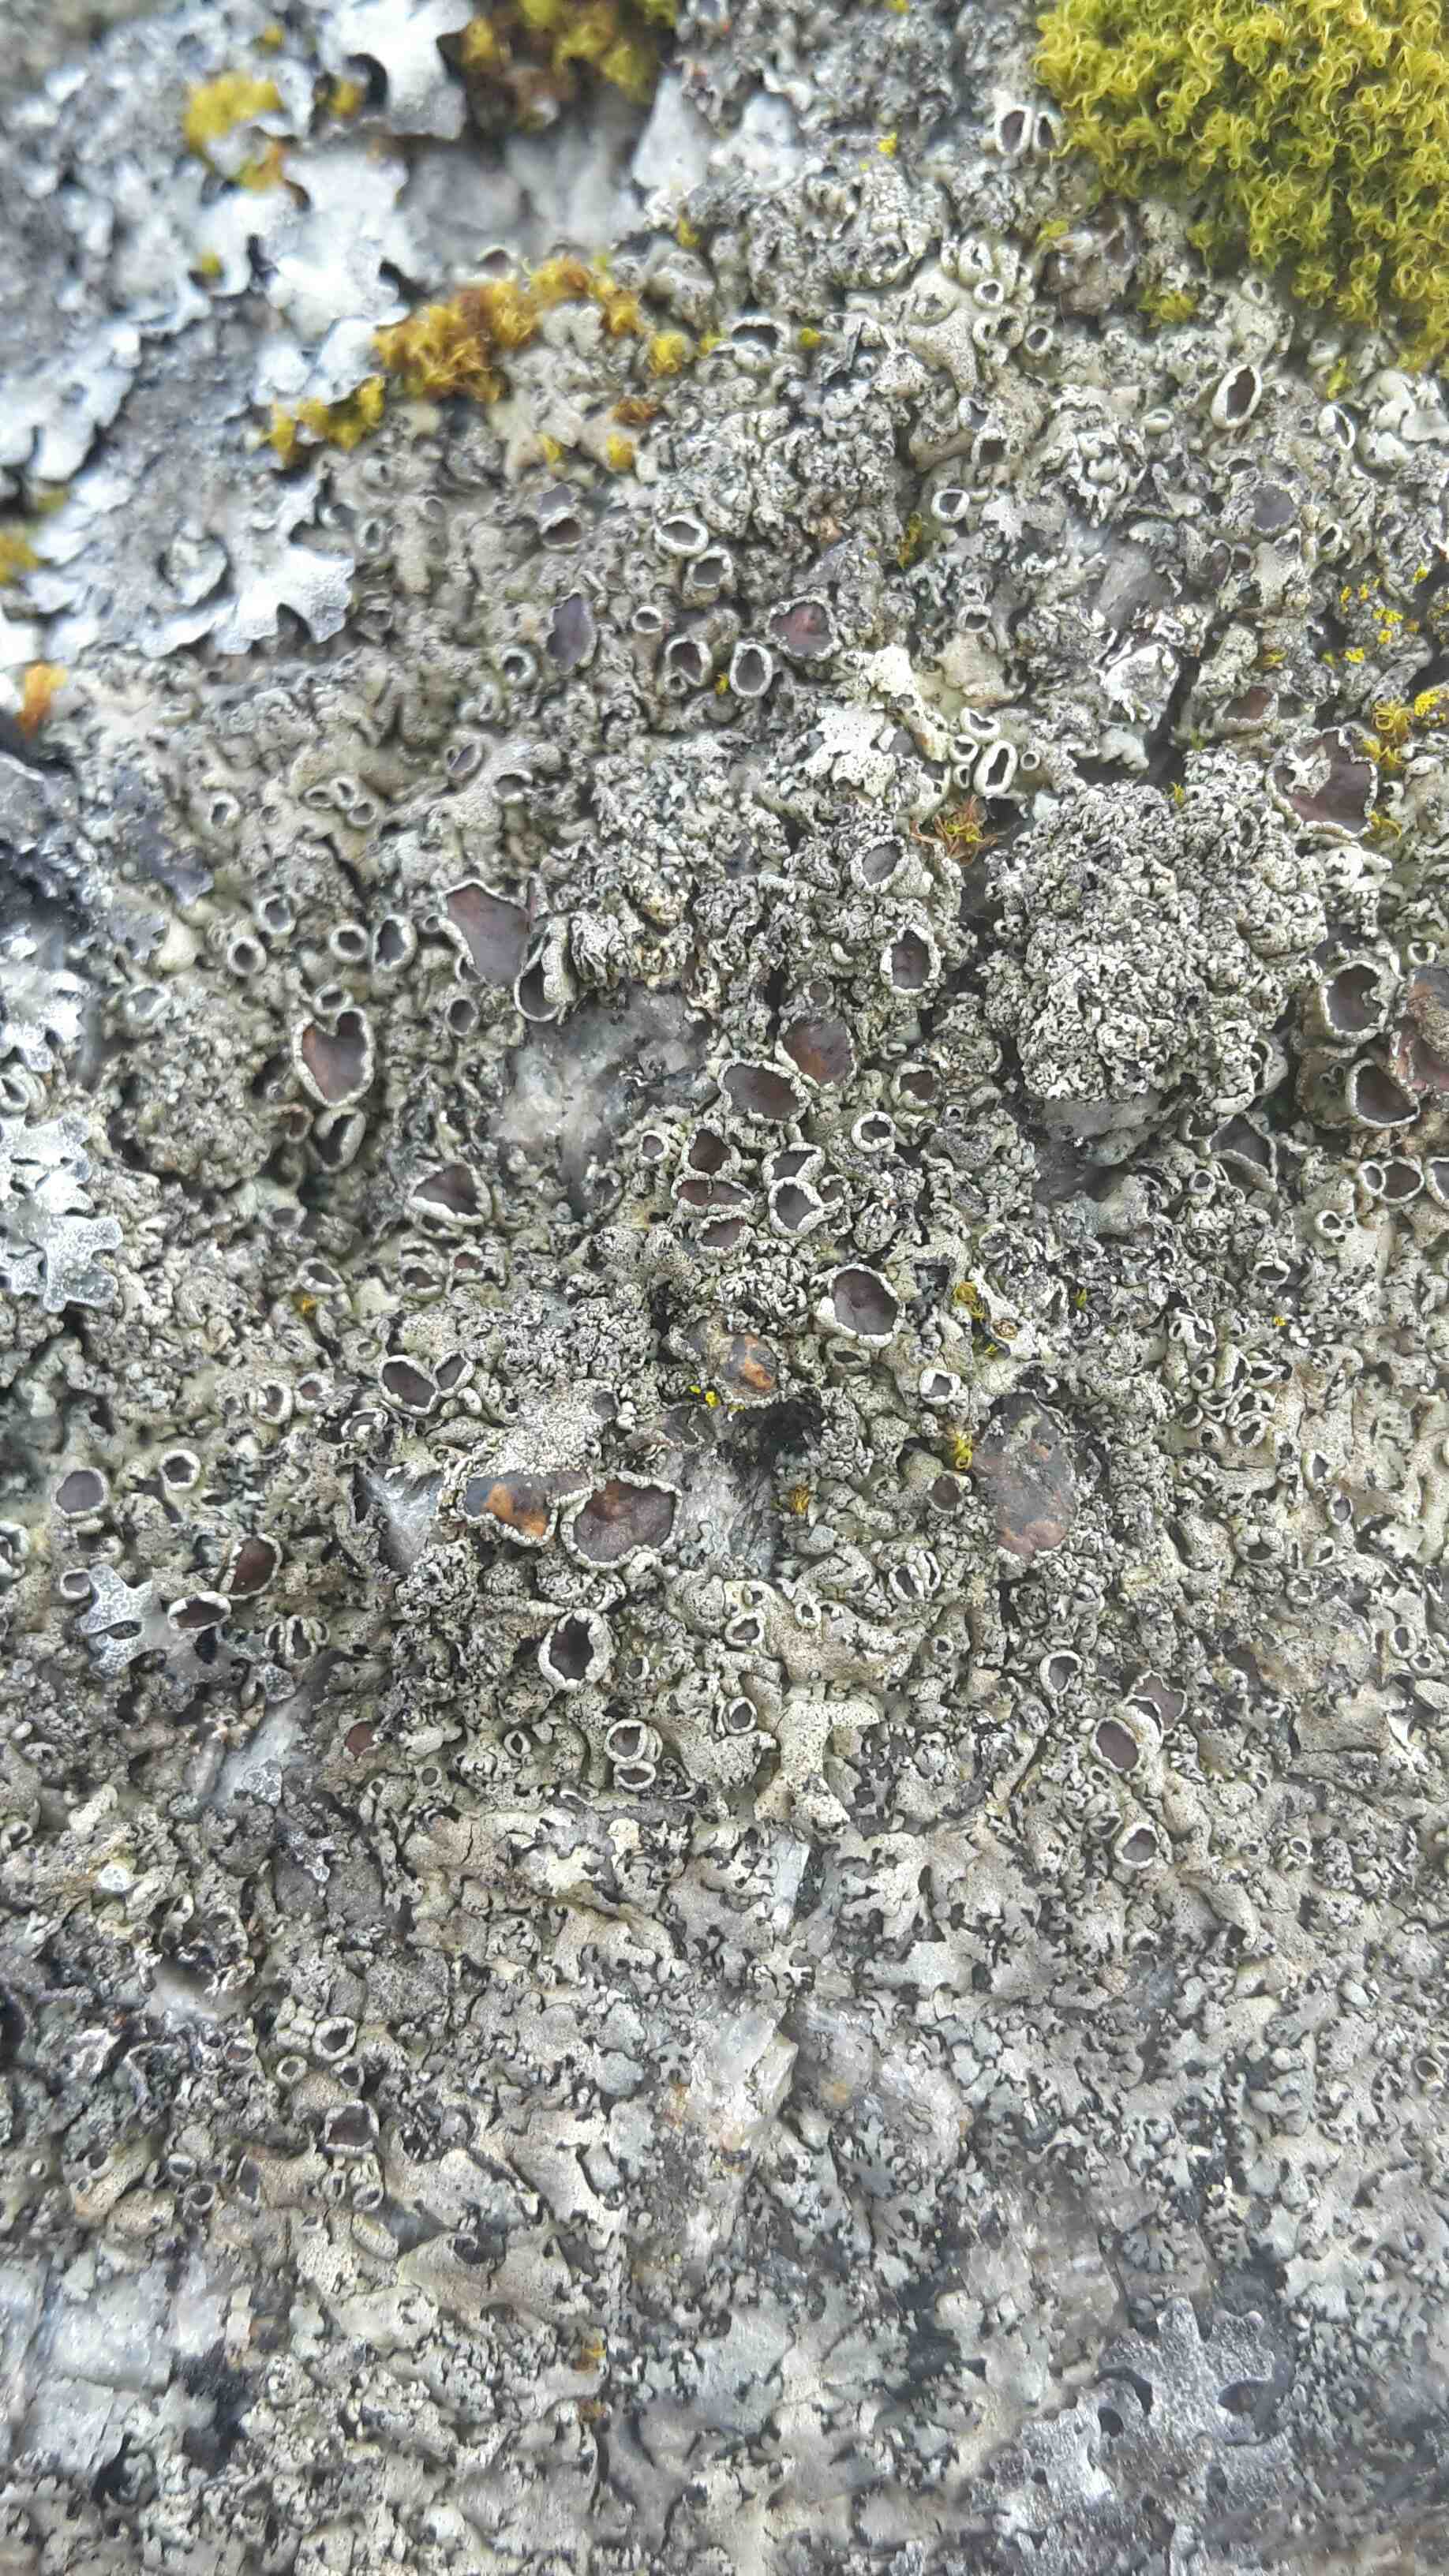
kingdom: Fungi
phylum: Ascomycota
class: Lecanoromycetes
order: Lecanorales
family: Parmeliaceae
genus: Xanthoparmelia
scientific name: Xanthoparmelia conspersa
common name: messing-skållav
